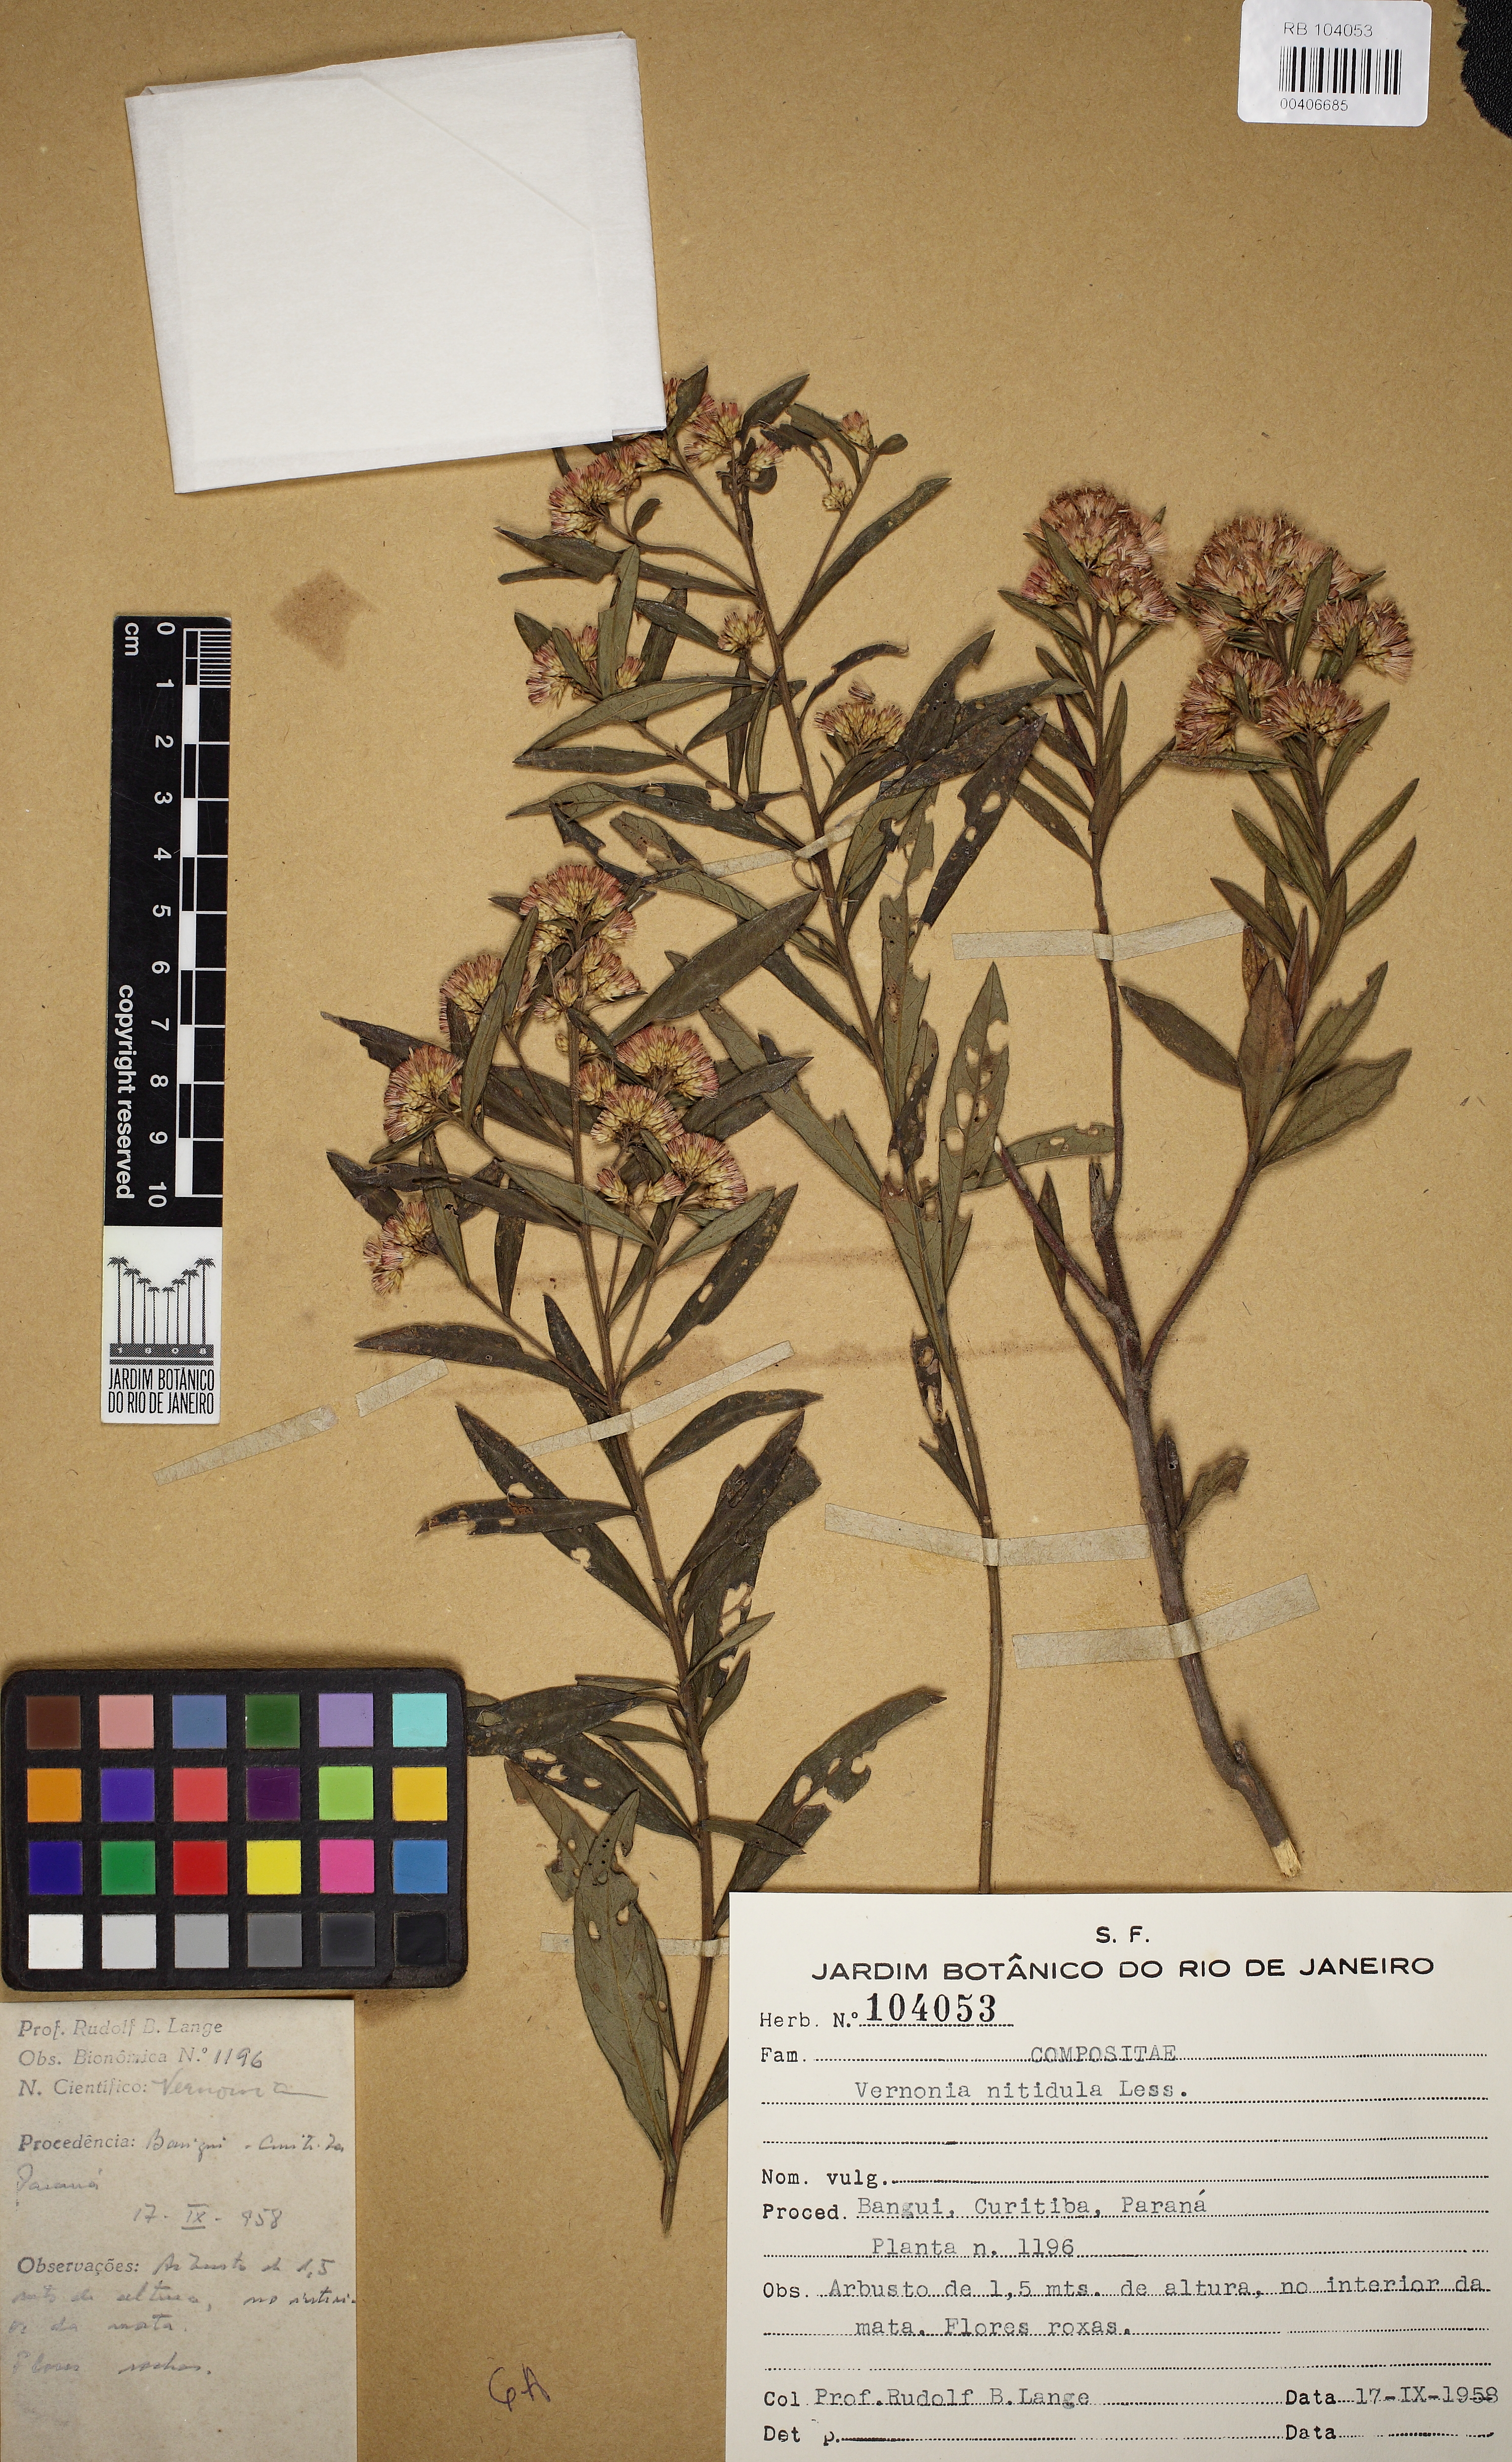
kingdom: Plantae
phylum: Tracheophyta
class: Magnoliopsida
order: Asterales
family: Asteraceae
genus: Vernonanthura
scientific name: Vernonanthura montevidensis
